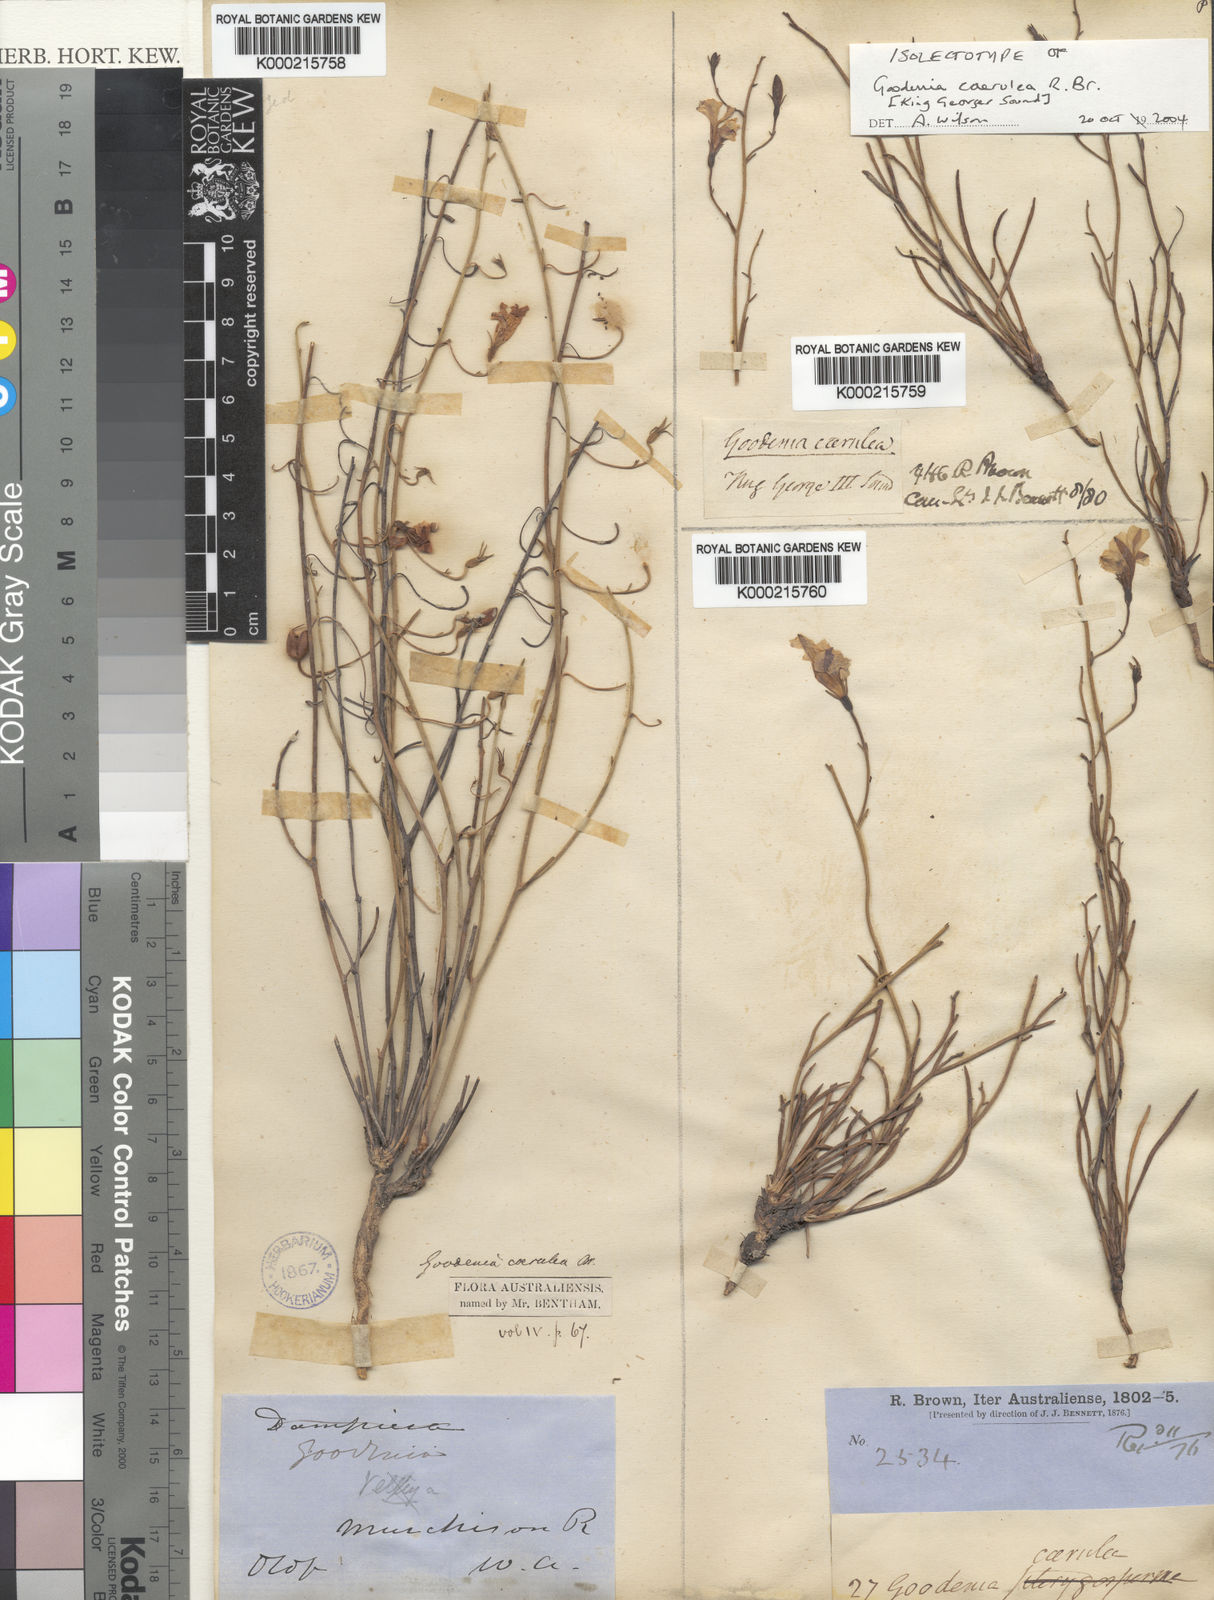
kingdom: Plantae
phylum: Tracheophyta
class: Magnoliopsida
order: Asterales
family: Goodeniaceae
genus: Goodenia
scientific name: Goodenia caerulea
